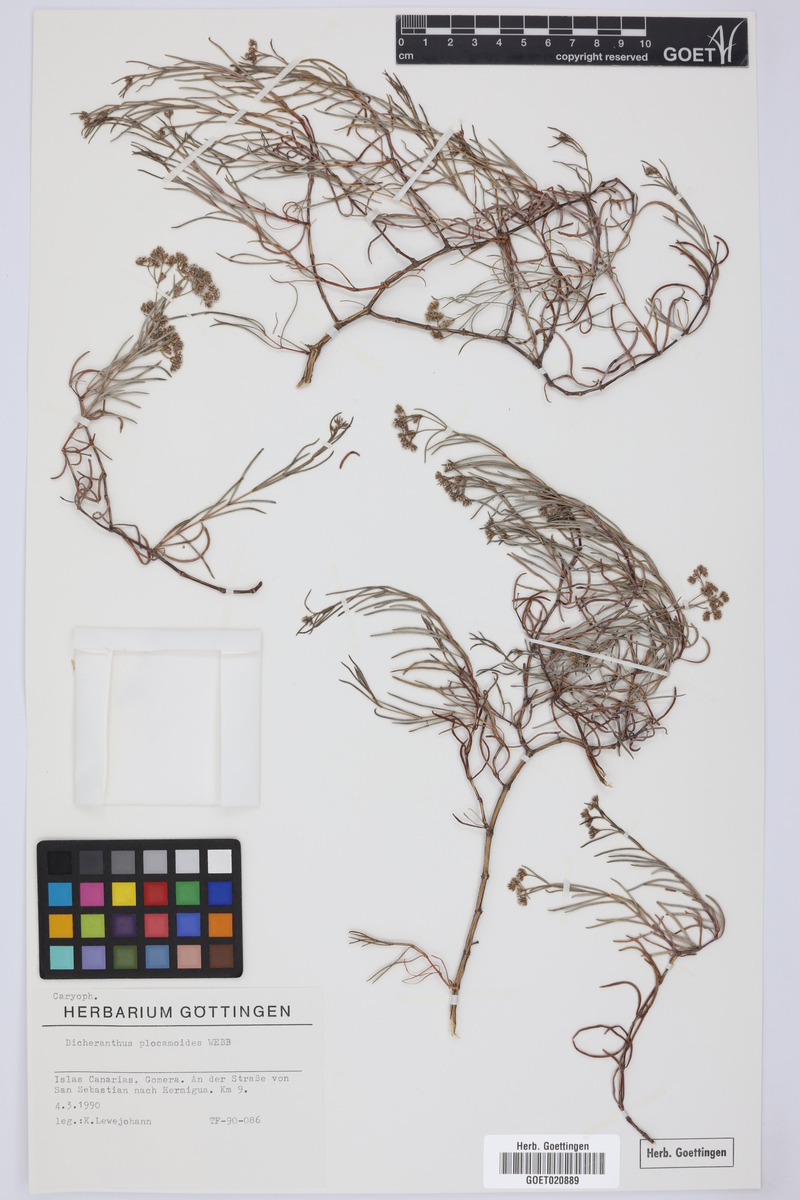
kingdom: Plantae
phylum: Tracheophyta
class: Magnoliopsida
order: Caryophyllales
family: Caryophyllaceae
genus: Dicheranthus
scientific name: Dicheranthus plocamoides
